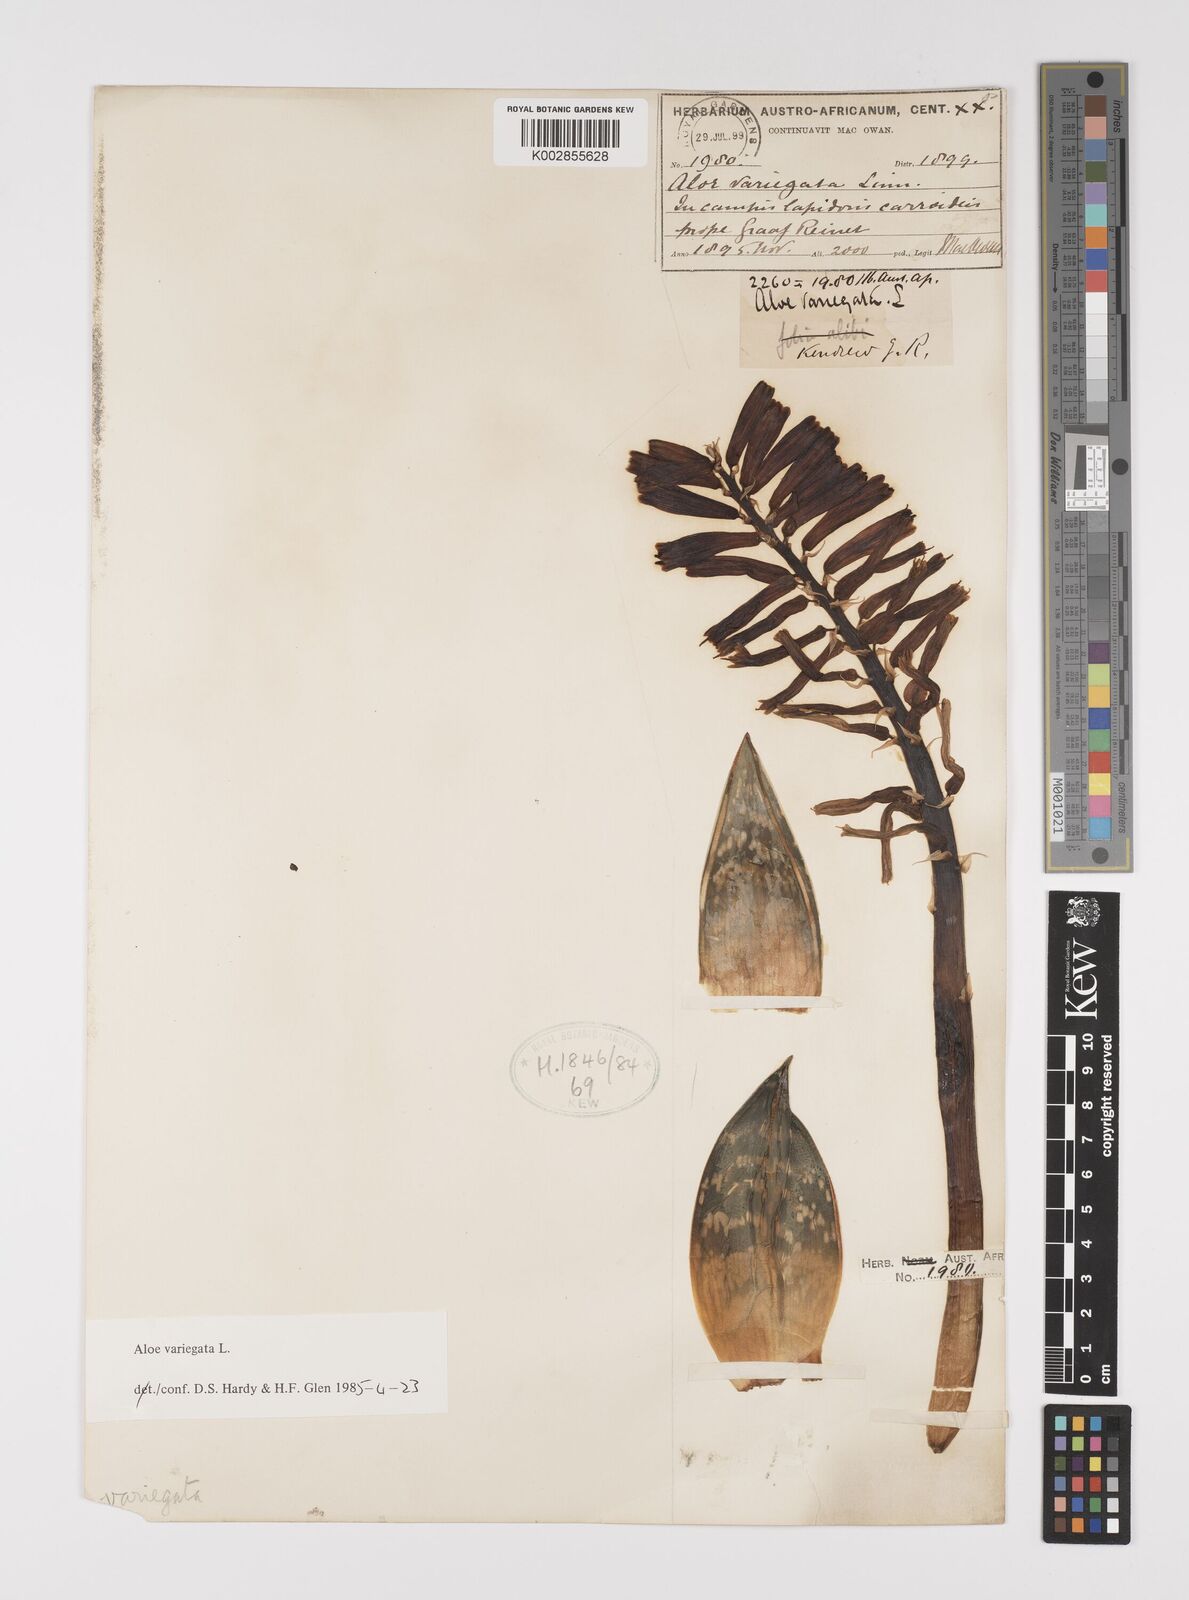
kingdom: Plantae
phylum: Tracheophyta
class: Liliopsida
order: Asparagales
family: Asphodelaceae
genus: Gonialoe
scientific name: Gonialoe variegata
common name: Aloe variegata
